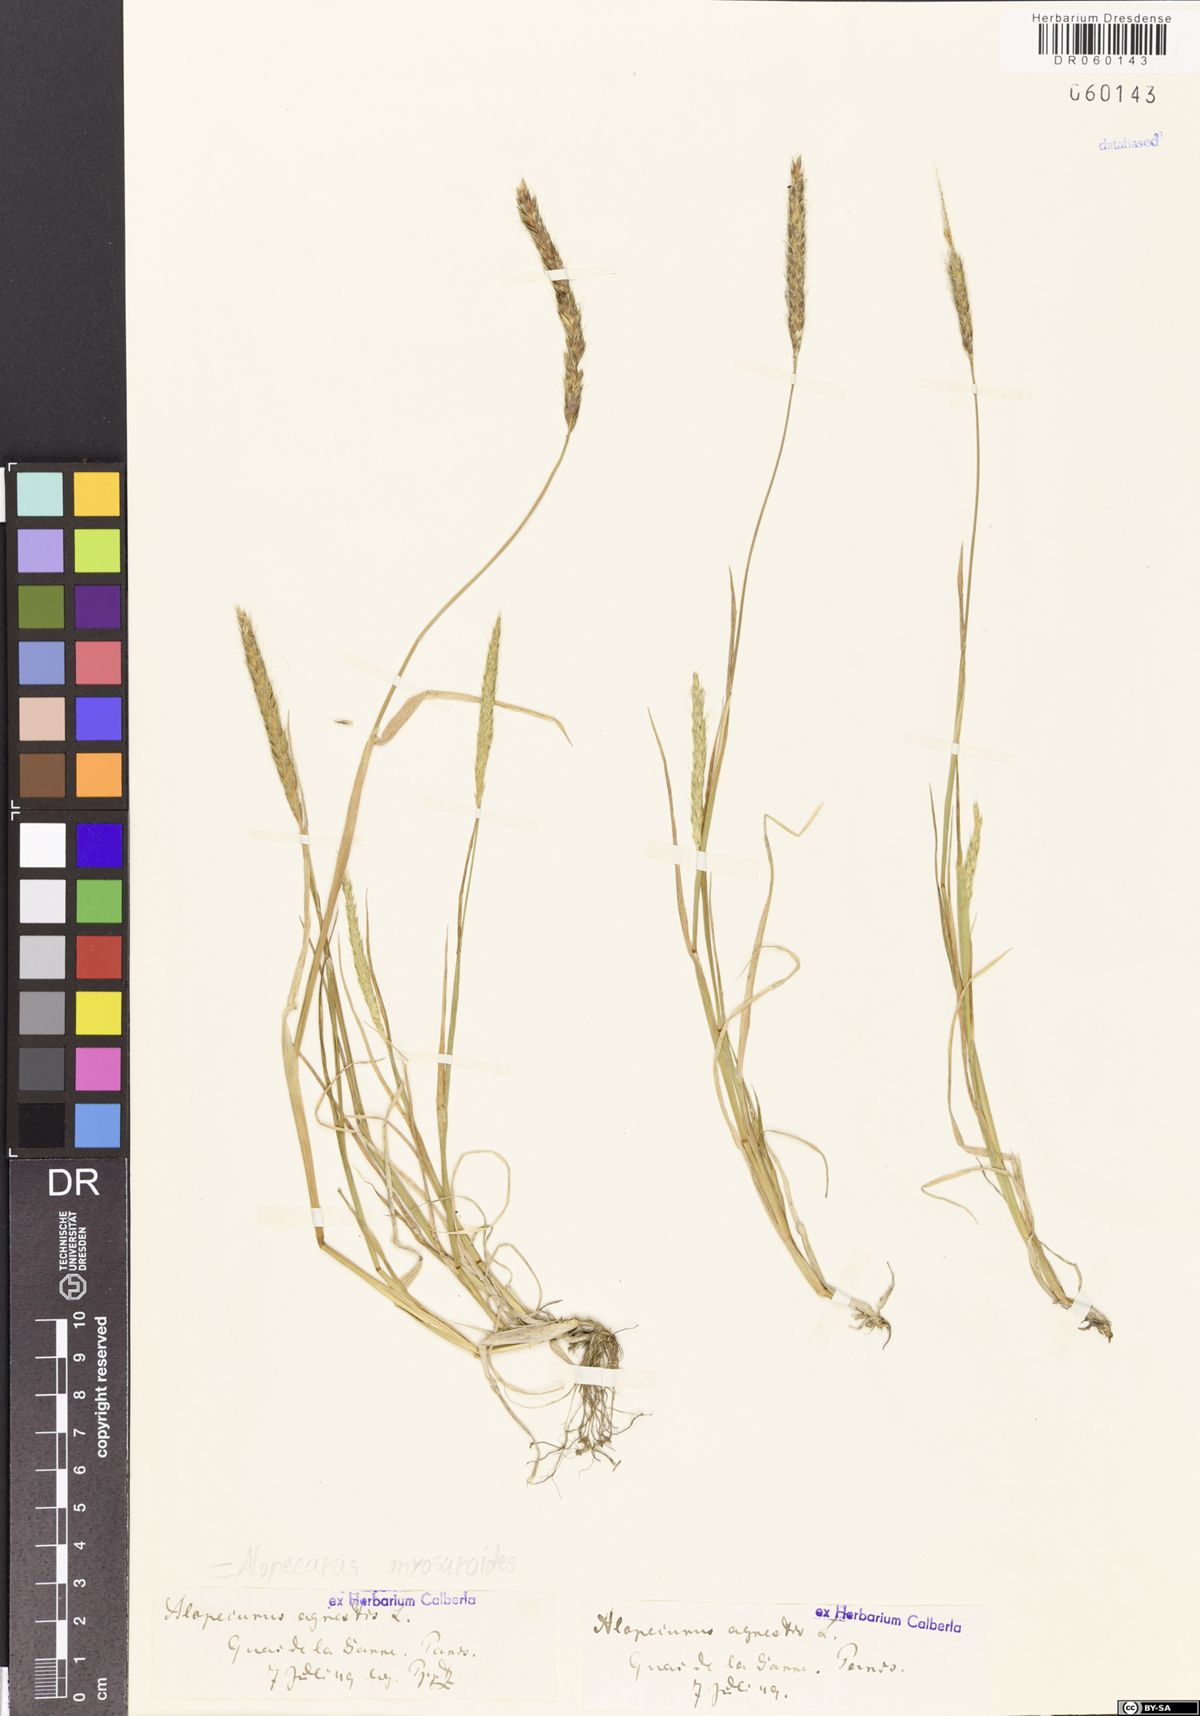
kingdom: Plantae
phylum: Tracheophyta
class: Liliopsida
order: Poales
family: Poaceae
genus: Alopecurus
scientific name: Alopecurus myosuroides
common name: Black-grass
